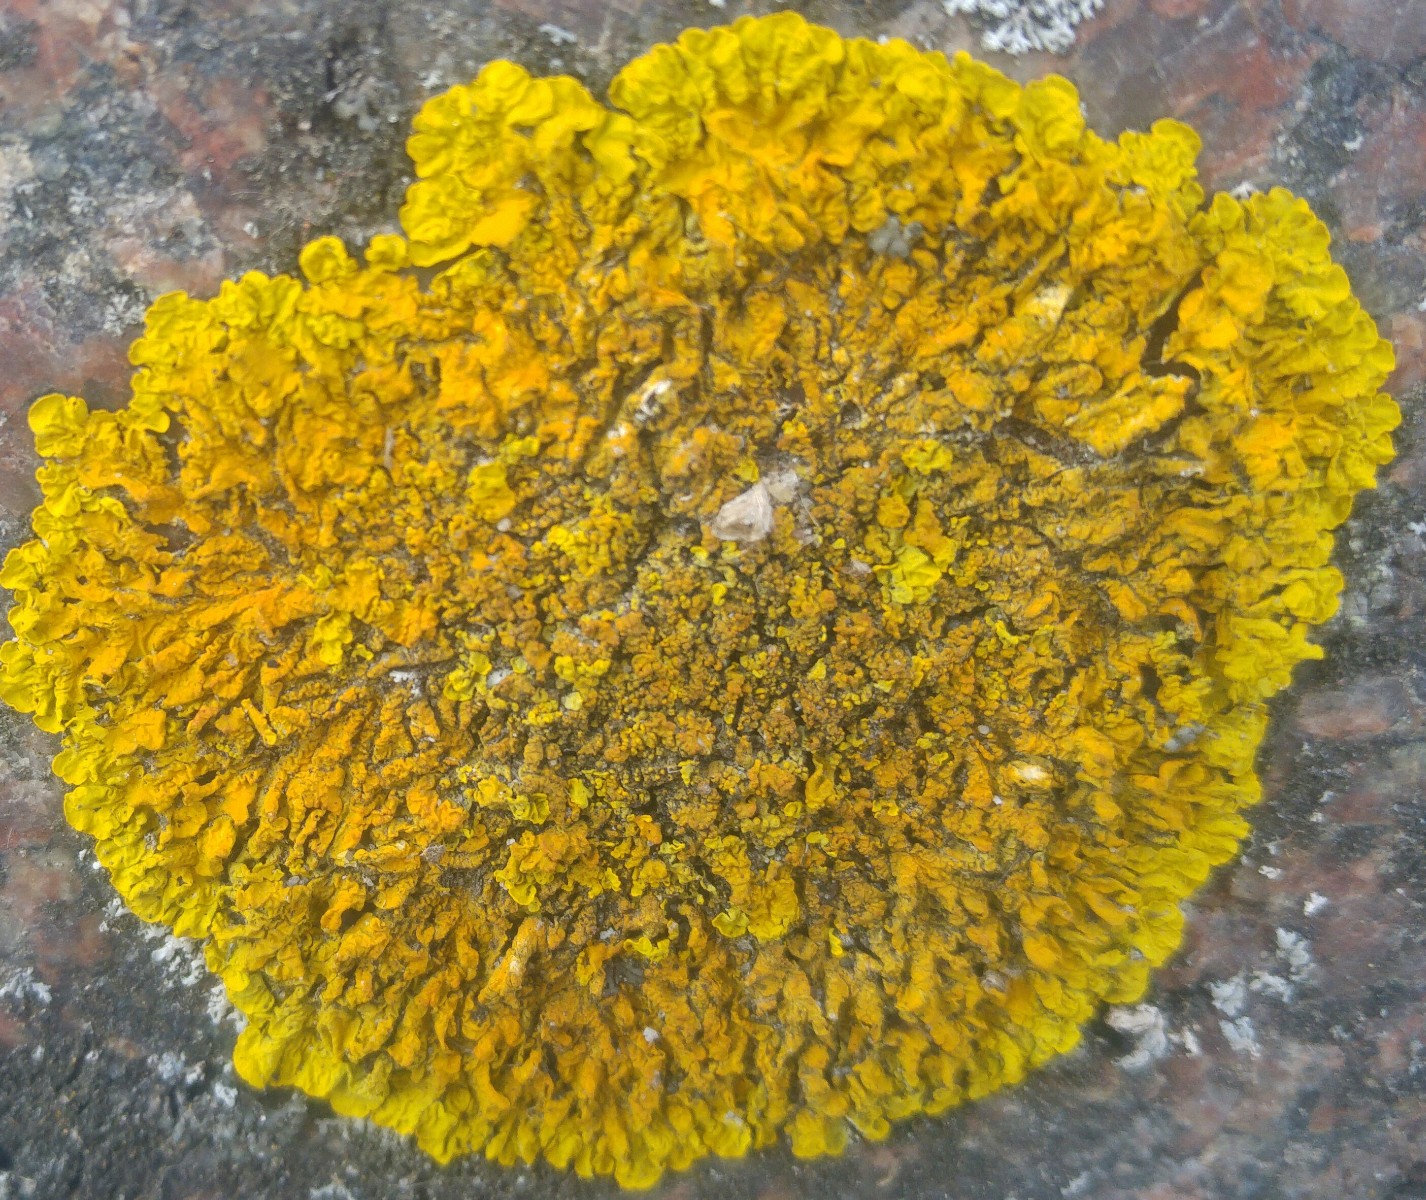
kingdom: Fungi
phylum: Ascomycota
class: Lecanoromycetes
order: Teloschistales
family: Teloschistaceae
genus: Xanthoria
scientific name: Xanthoria calcicola
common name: vortet væggelav
